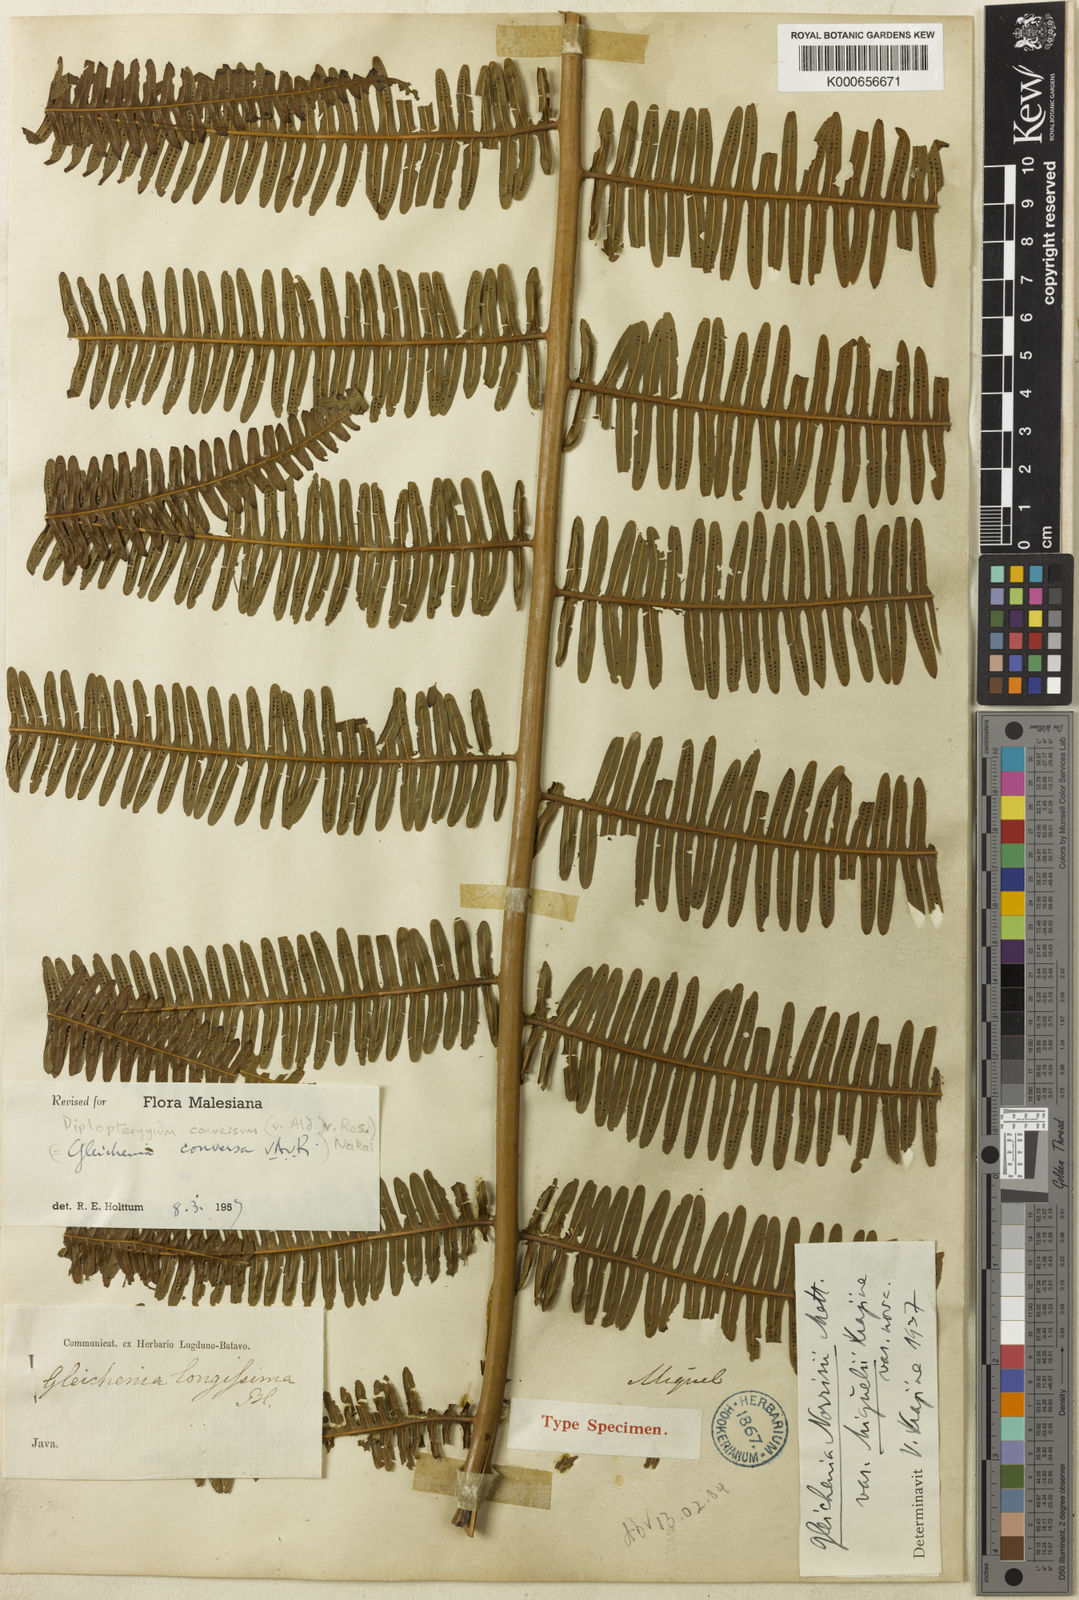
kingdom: Plantae
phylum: Tracheophyta
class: Polypodiopsida
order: Gleicheniales
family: Gleicheniaceae
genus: Diplopterygium
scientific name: Diplopterygium conversum
